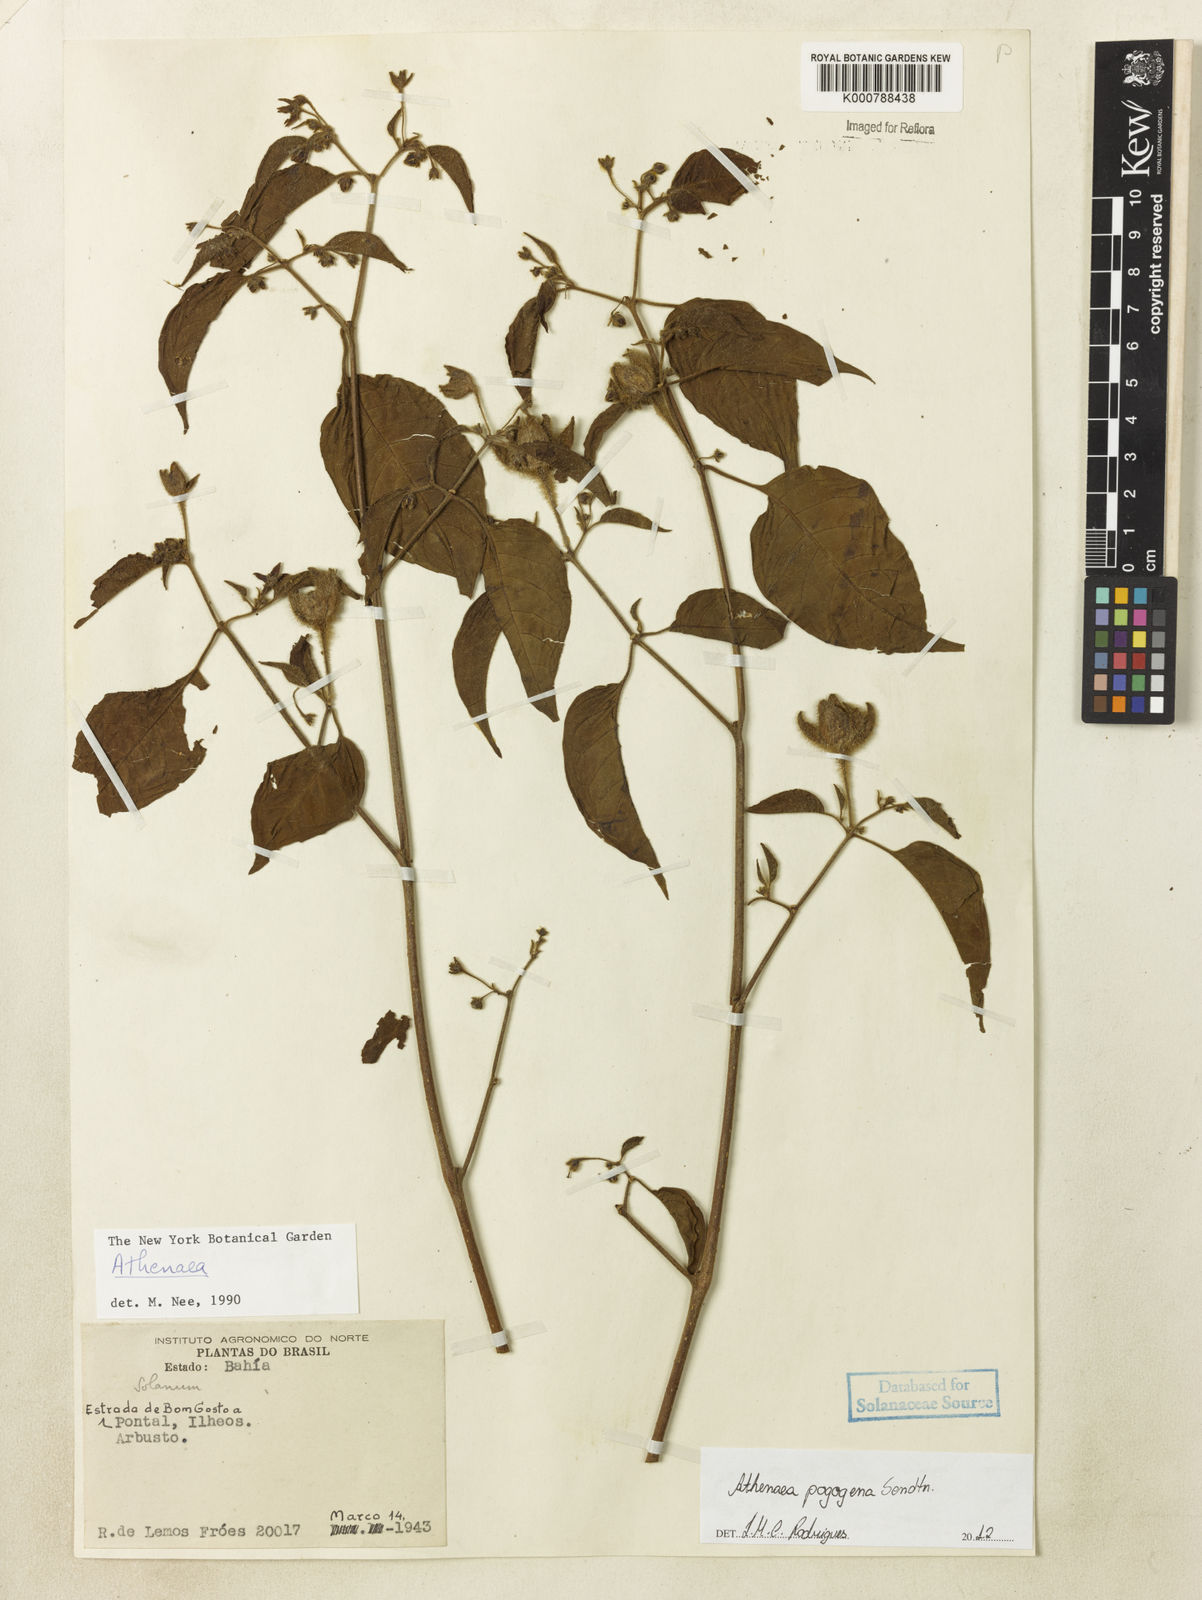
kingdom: Plantae
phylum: Tracheophyta
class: Magnoliopsida
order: Solanales
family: Solanaceae
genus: Athenaea
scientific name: Athenaea pogogena
